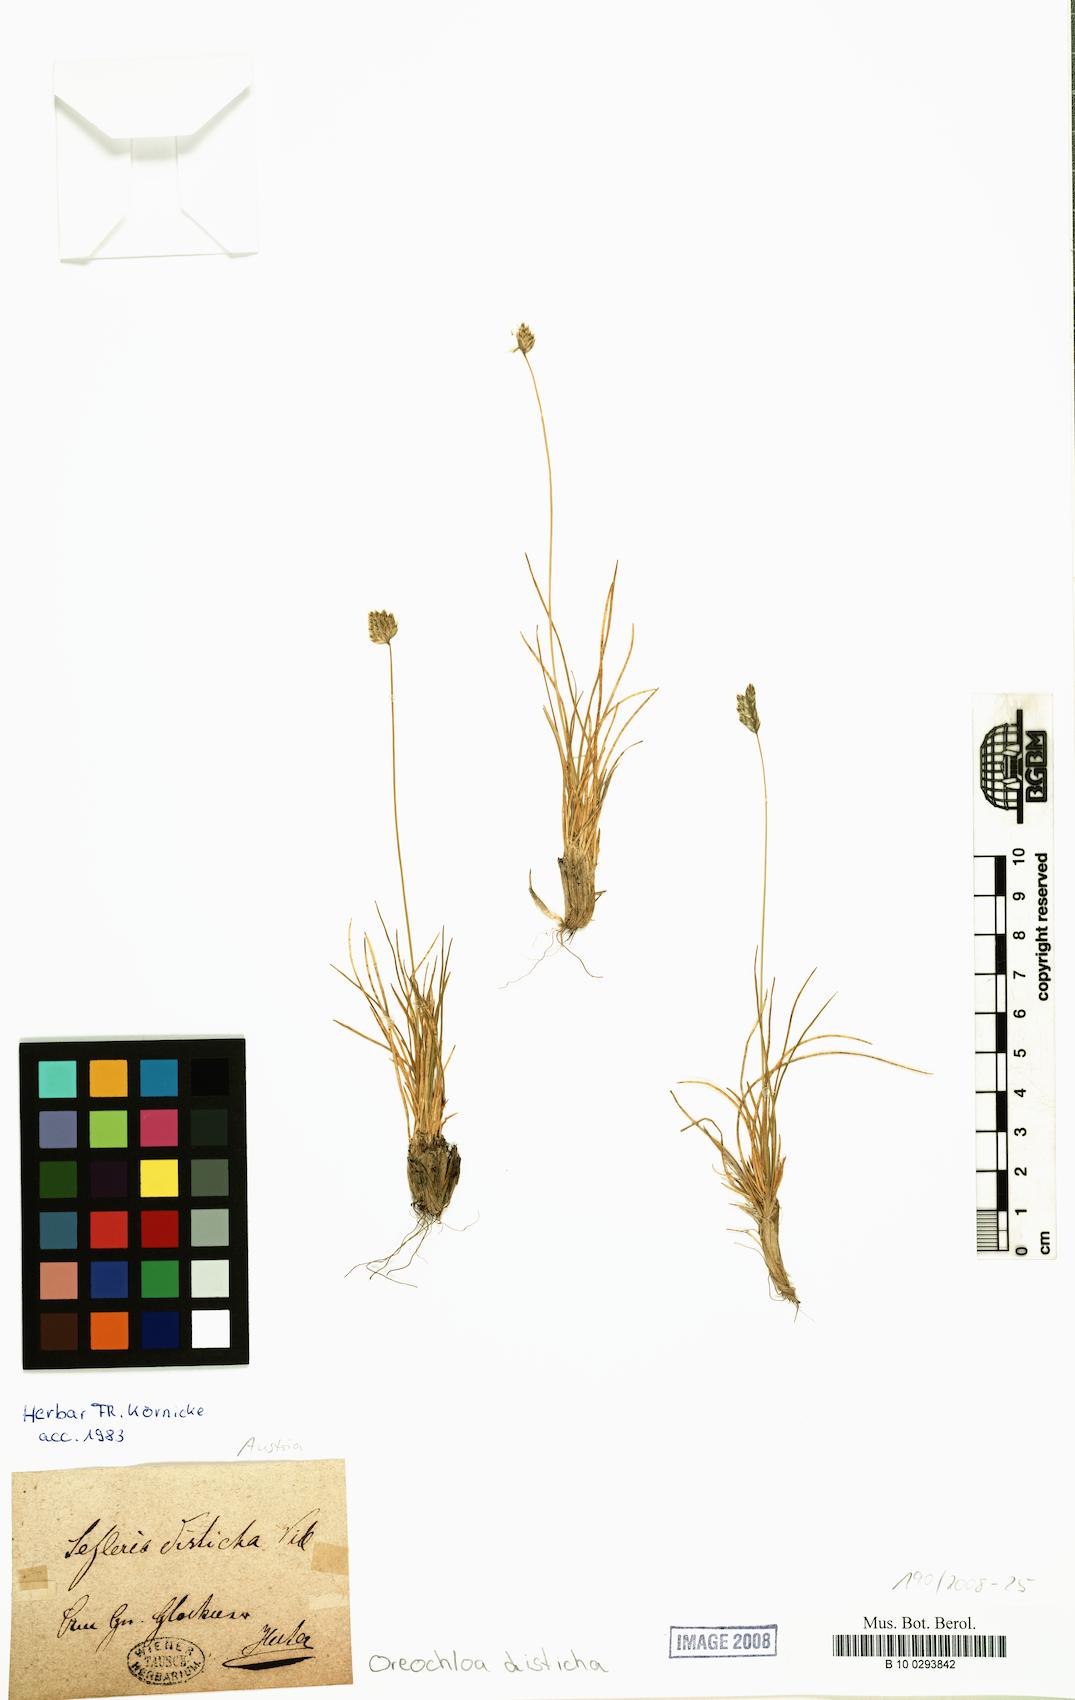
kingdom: Plantae
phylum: Tracheophyta
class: Liliopsida
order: Poales
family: Poaceae
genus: Oreochloa
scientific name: Oreochloa disticha
